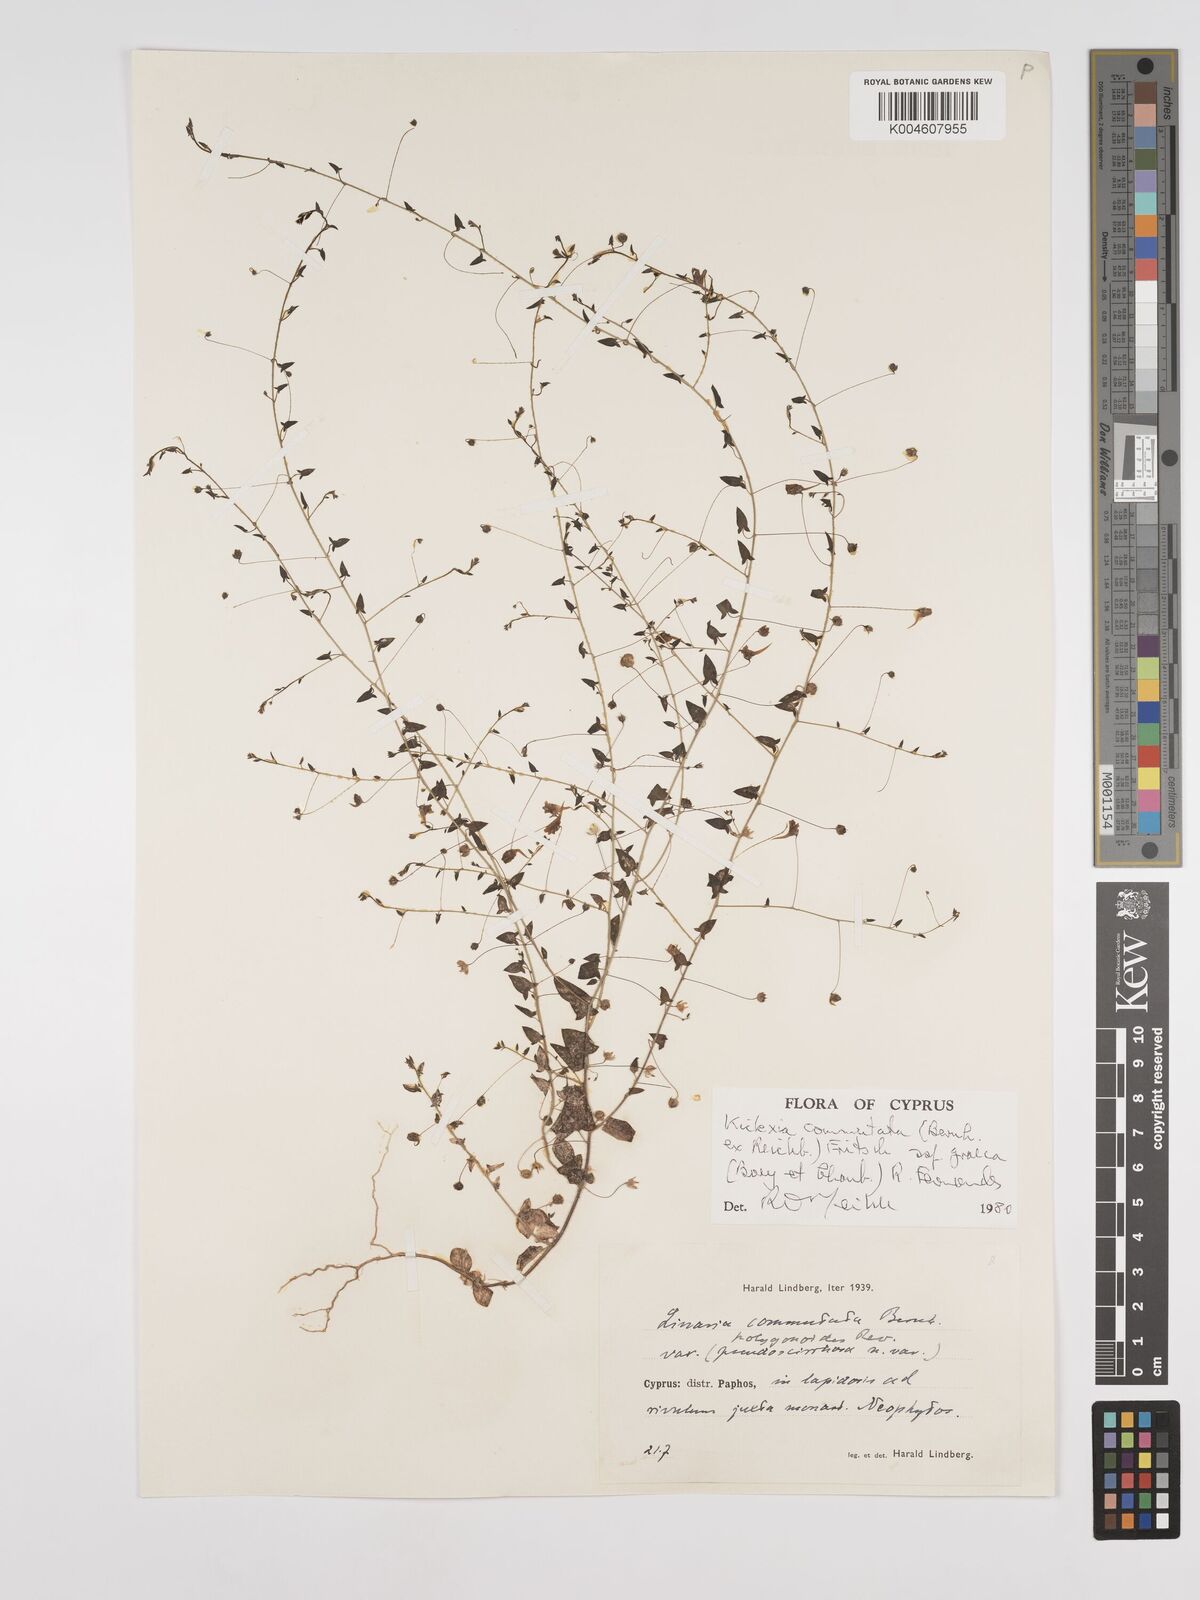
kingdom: Plantae
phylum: Tracheophyta
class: Magnoliopsida
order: Lamiales
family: Plantaginaceae
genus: Kickxia
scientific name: Kickxia commutata
